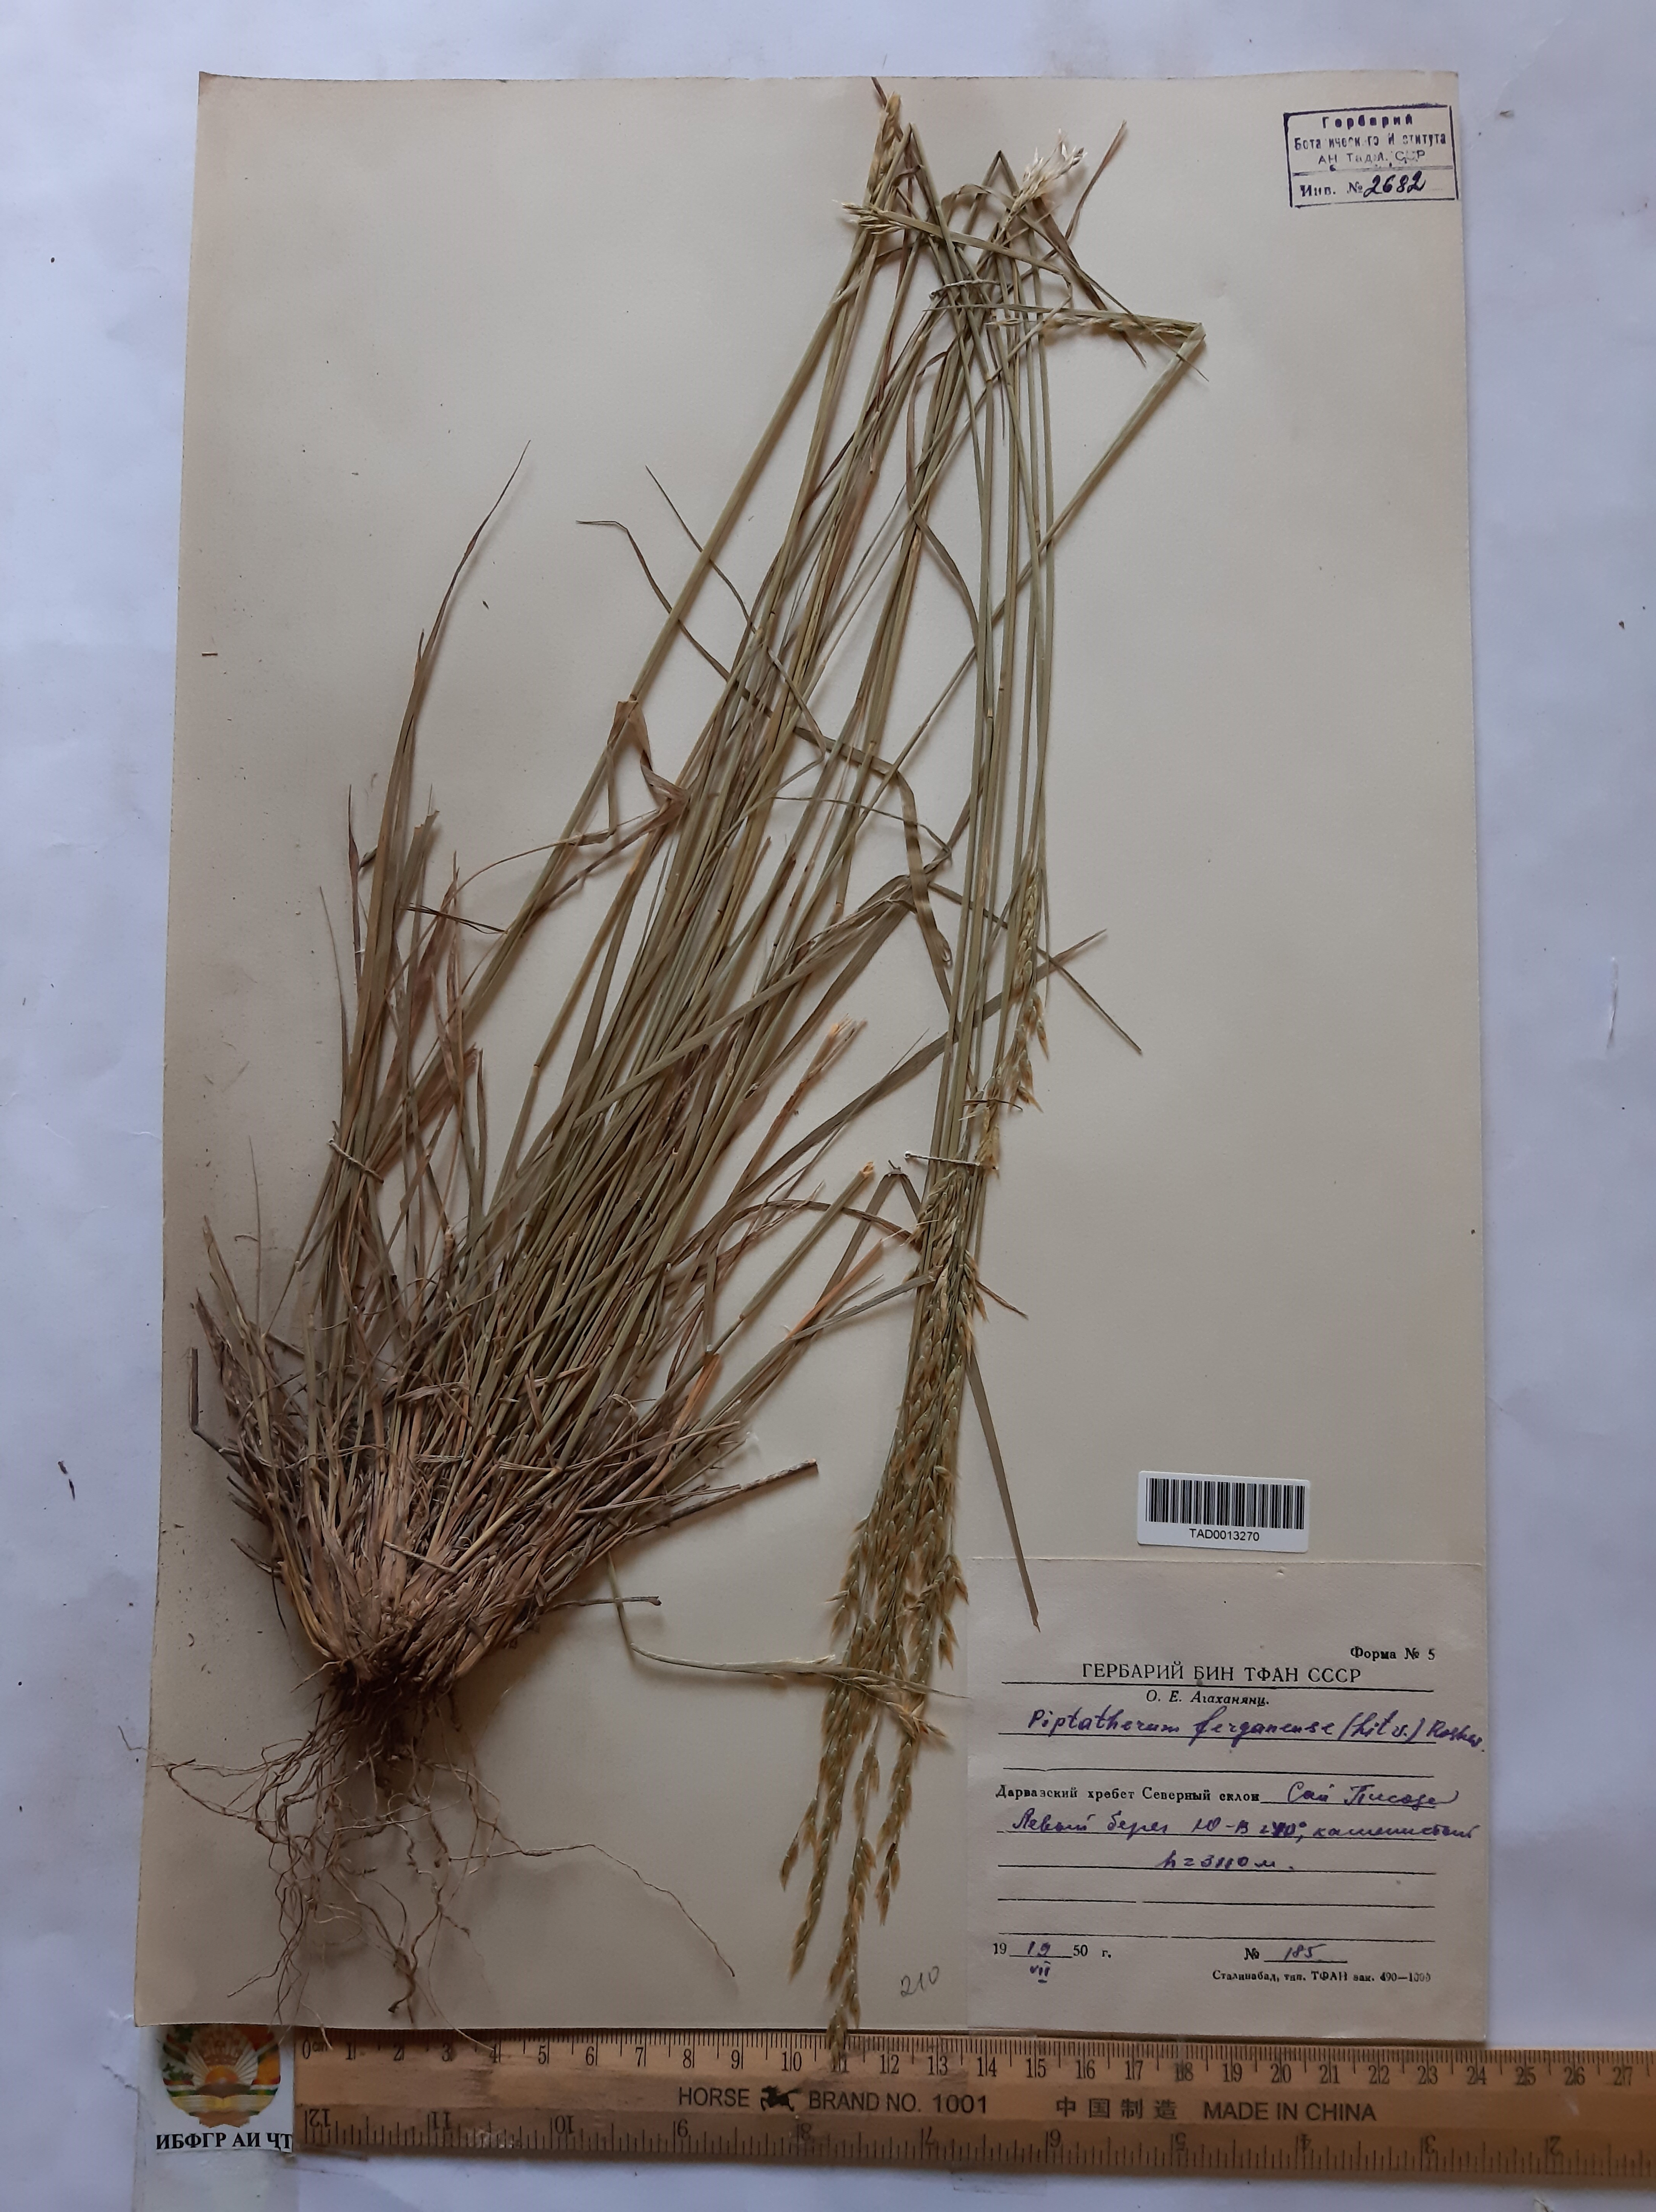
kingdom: Plantae
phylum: Tracheophyta
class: Liliopsida
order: Poales
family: Poaceae
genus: Piptatherum
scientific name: Piptatherum ferganense
